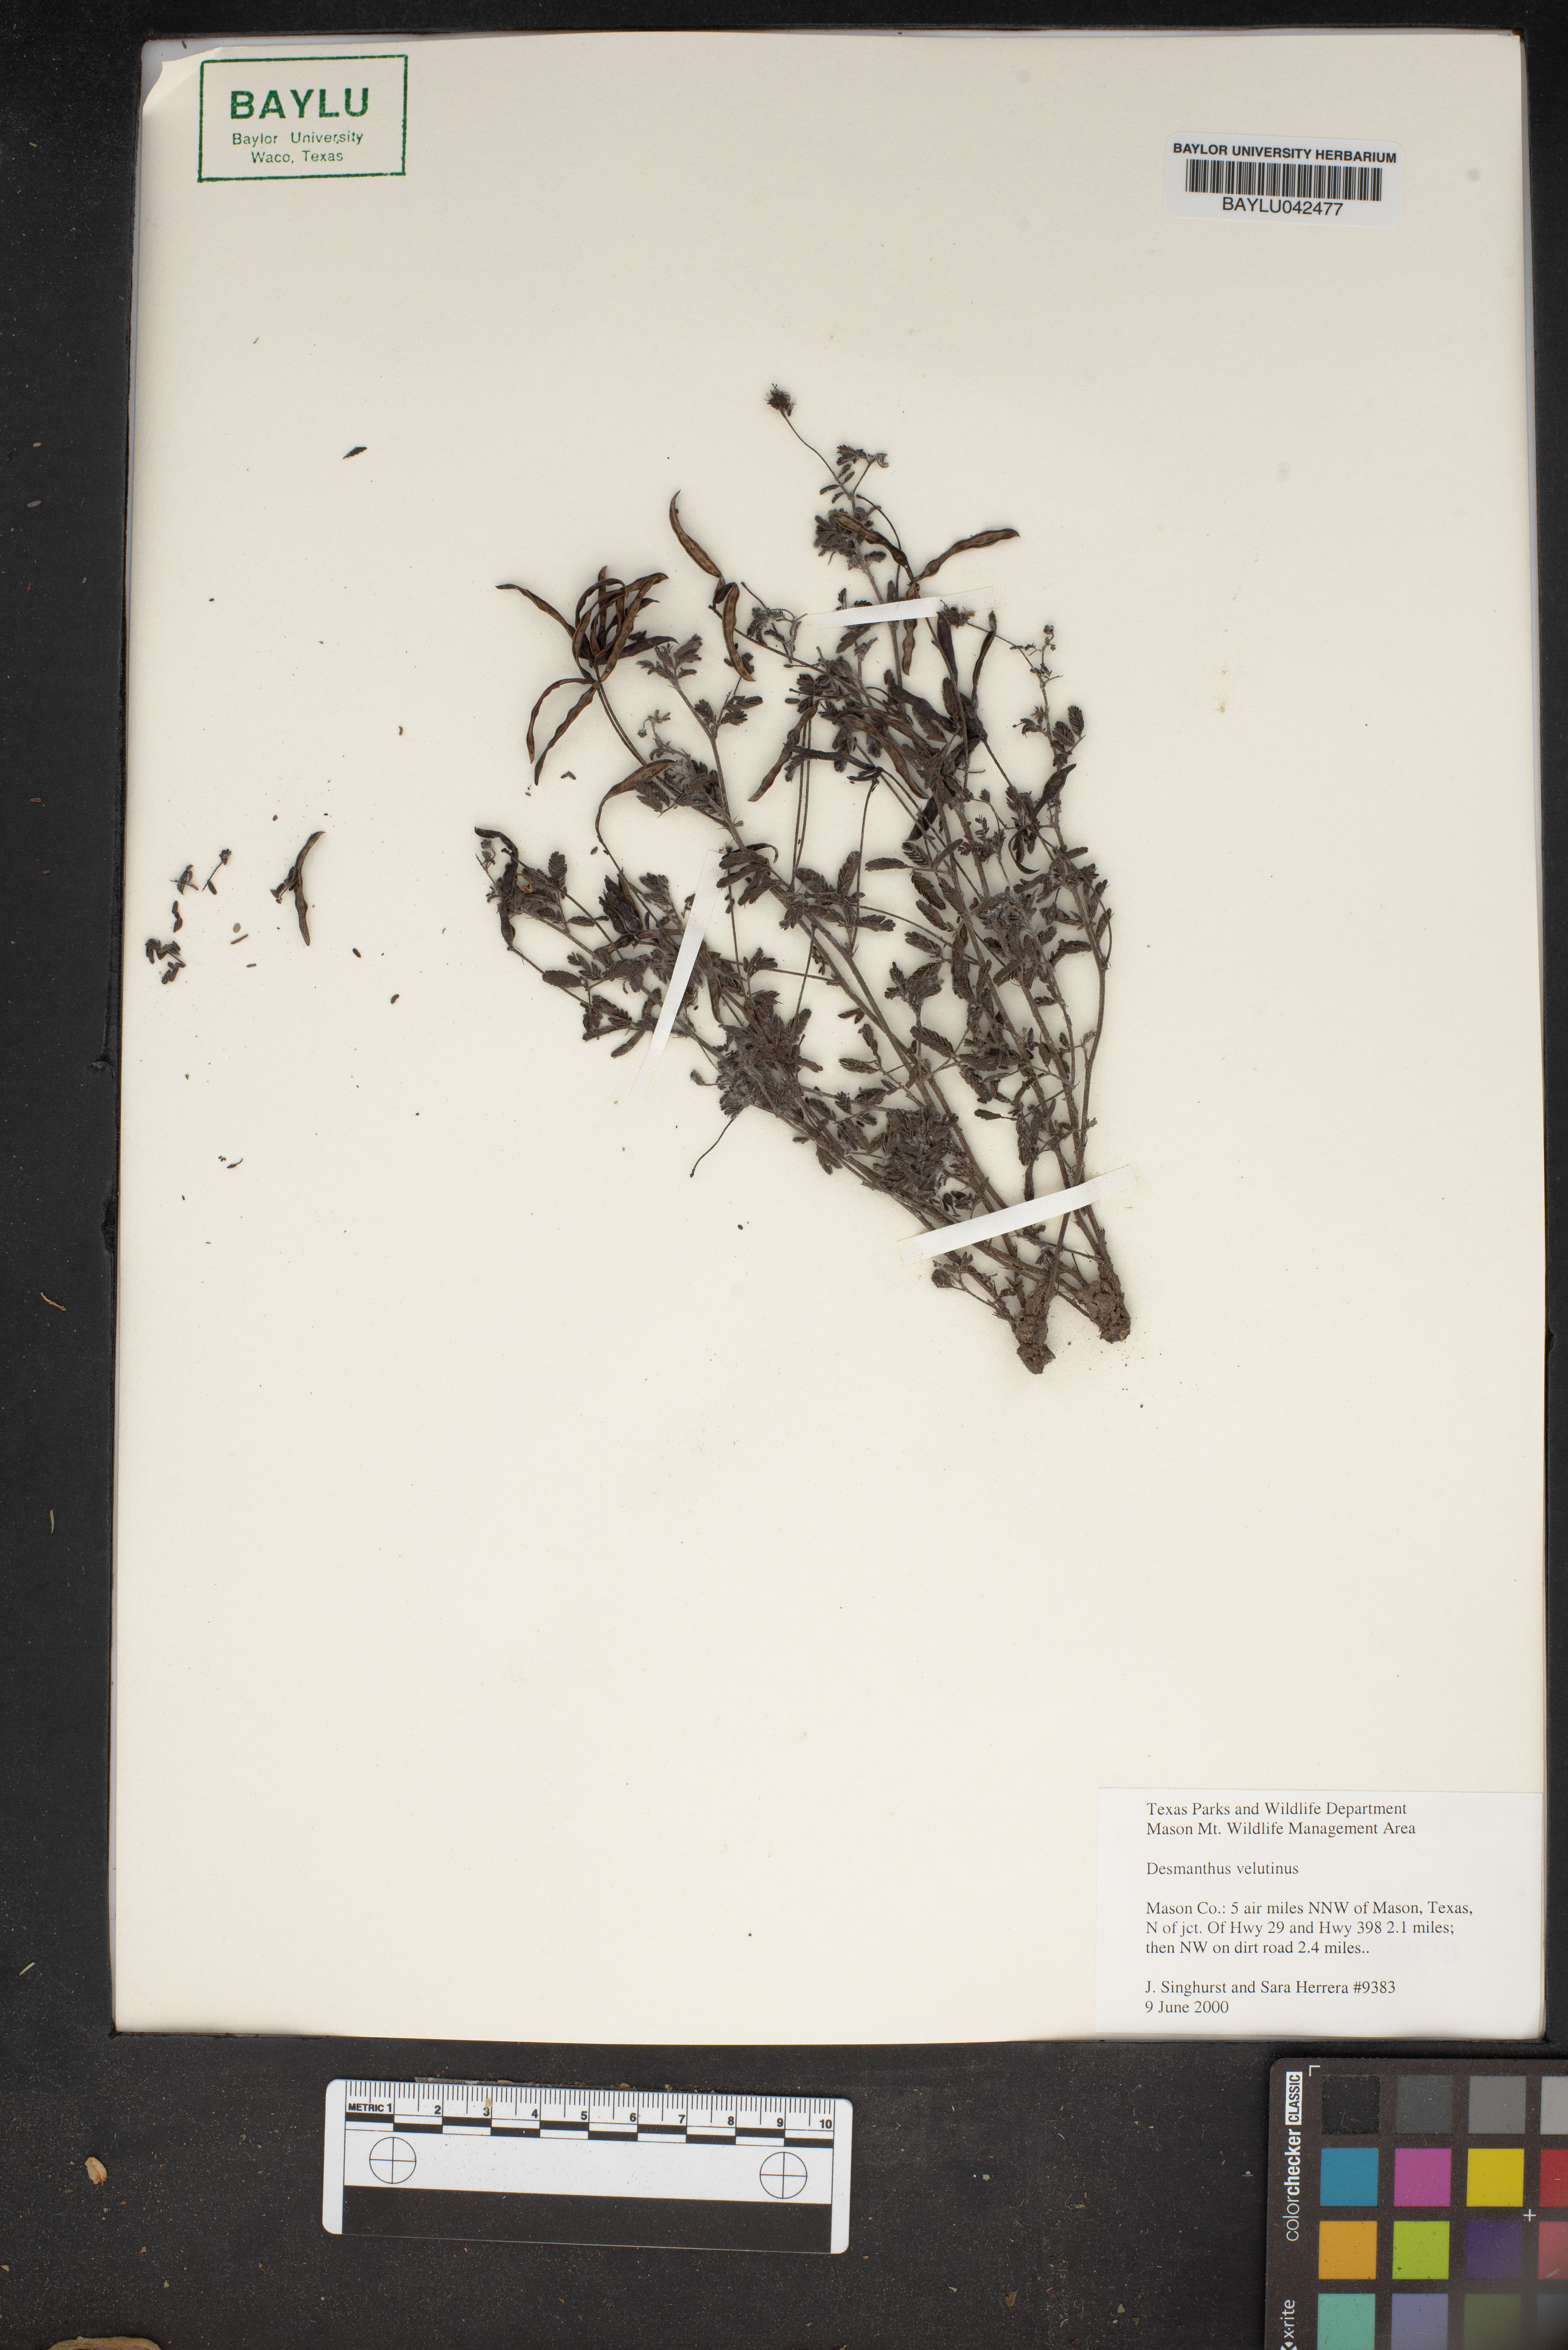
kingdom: Plantae
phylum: Tracheophyta
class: Magnoliopsida
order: Fabales
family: Fabaceae
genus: Desmanthus
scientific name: Desmanthus velutinus
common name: Velvet bundle-flower
